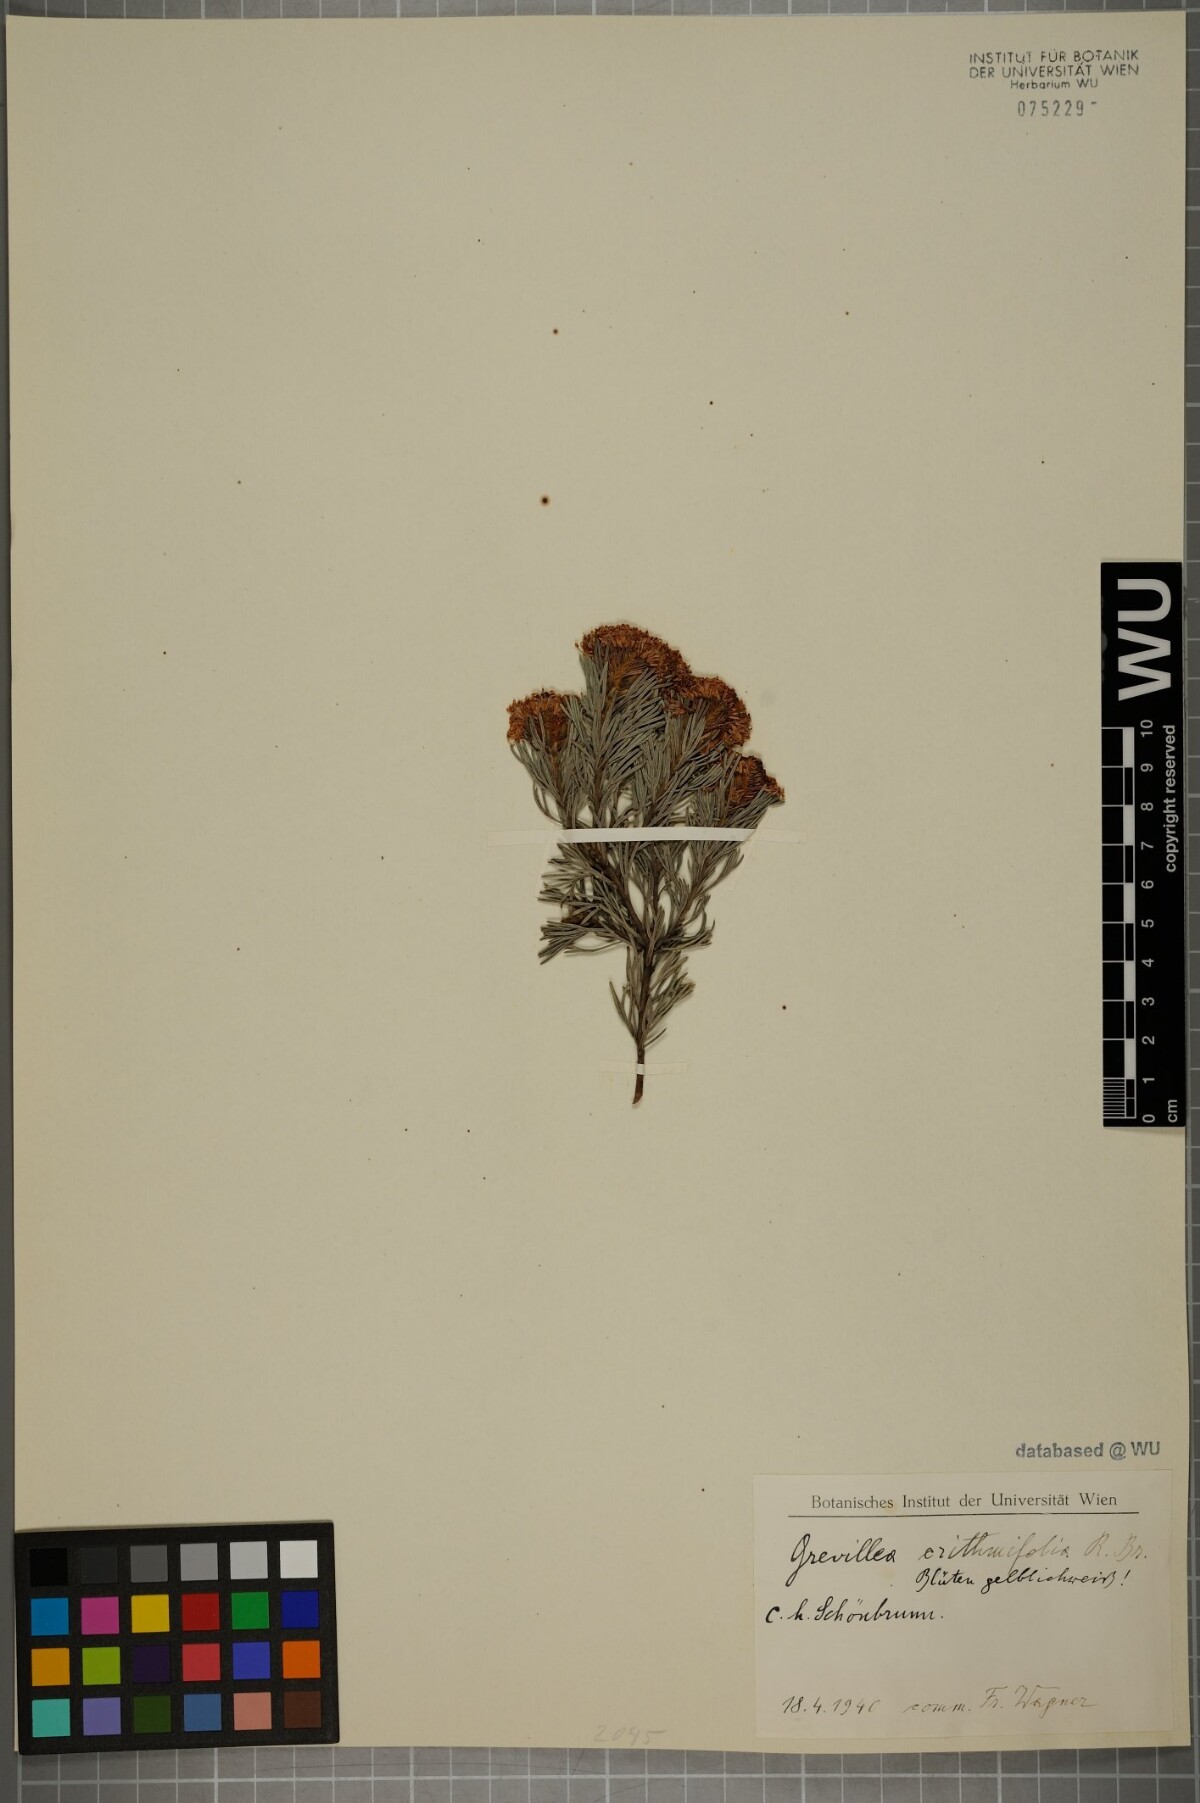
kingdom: Plantae
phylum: Tracheophyta
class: Magnoliopsida
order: Proteales
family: Proteaceae
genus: Grevillea
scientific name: Grevillea crithmifolia
